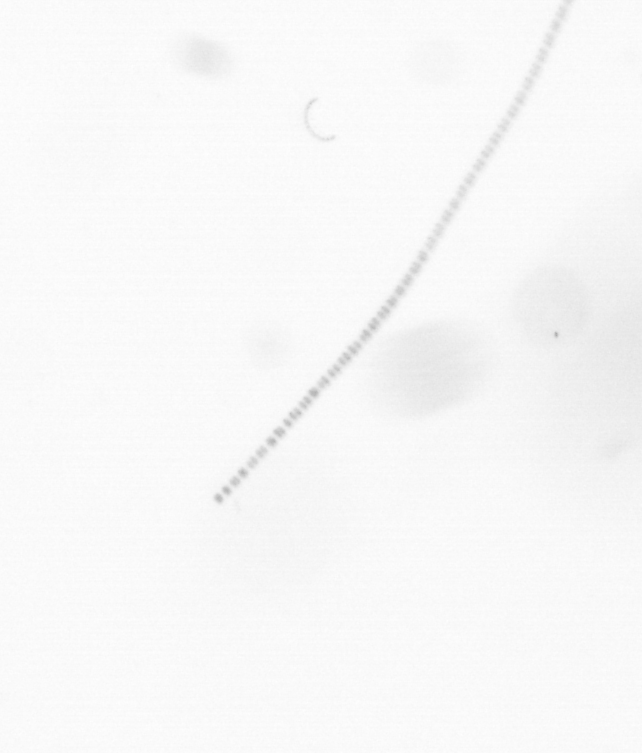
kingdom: Chromista
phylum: Ochrophyta
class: Bacillariophyceae
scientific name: Bacillariophyceae
